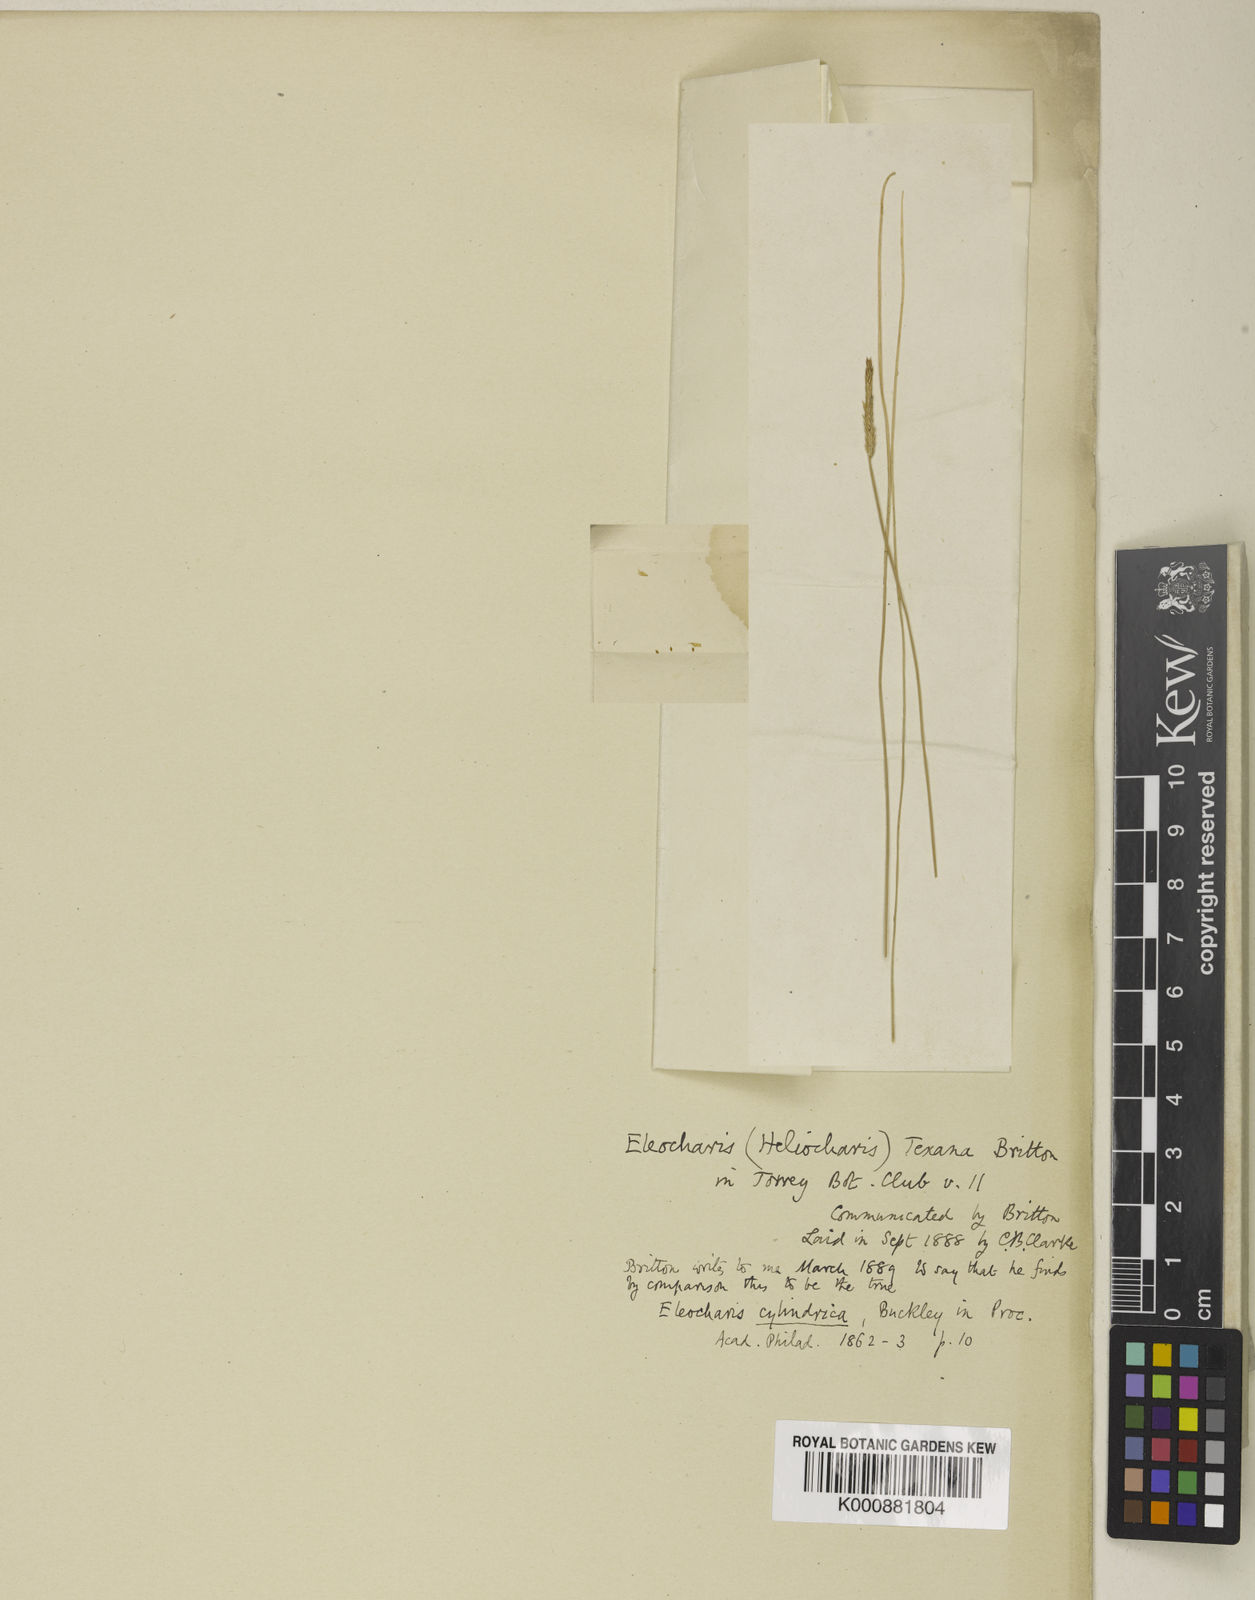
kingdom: Plantae
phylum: Tracheophyta
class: Liliopsida
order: Poales
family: Cyperaceae
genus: Eleocharis
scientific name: Eleocharis cylindrica
